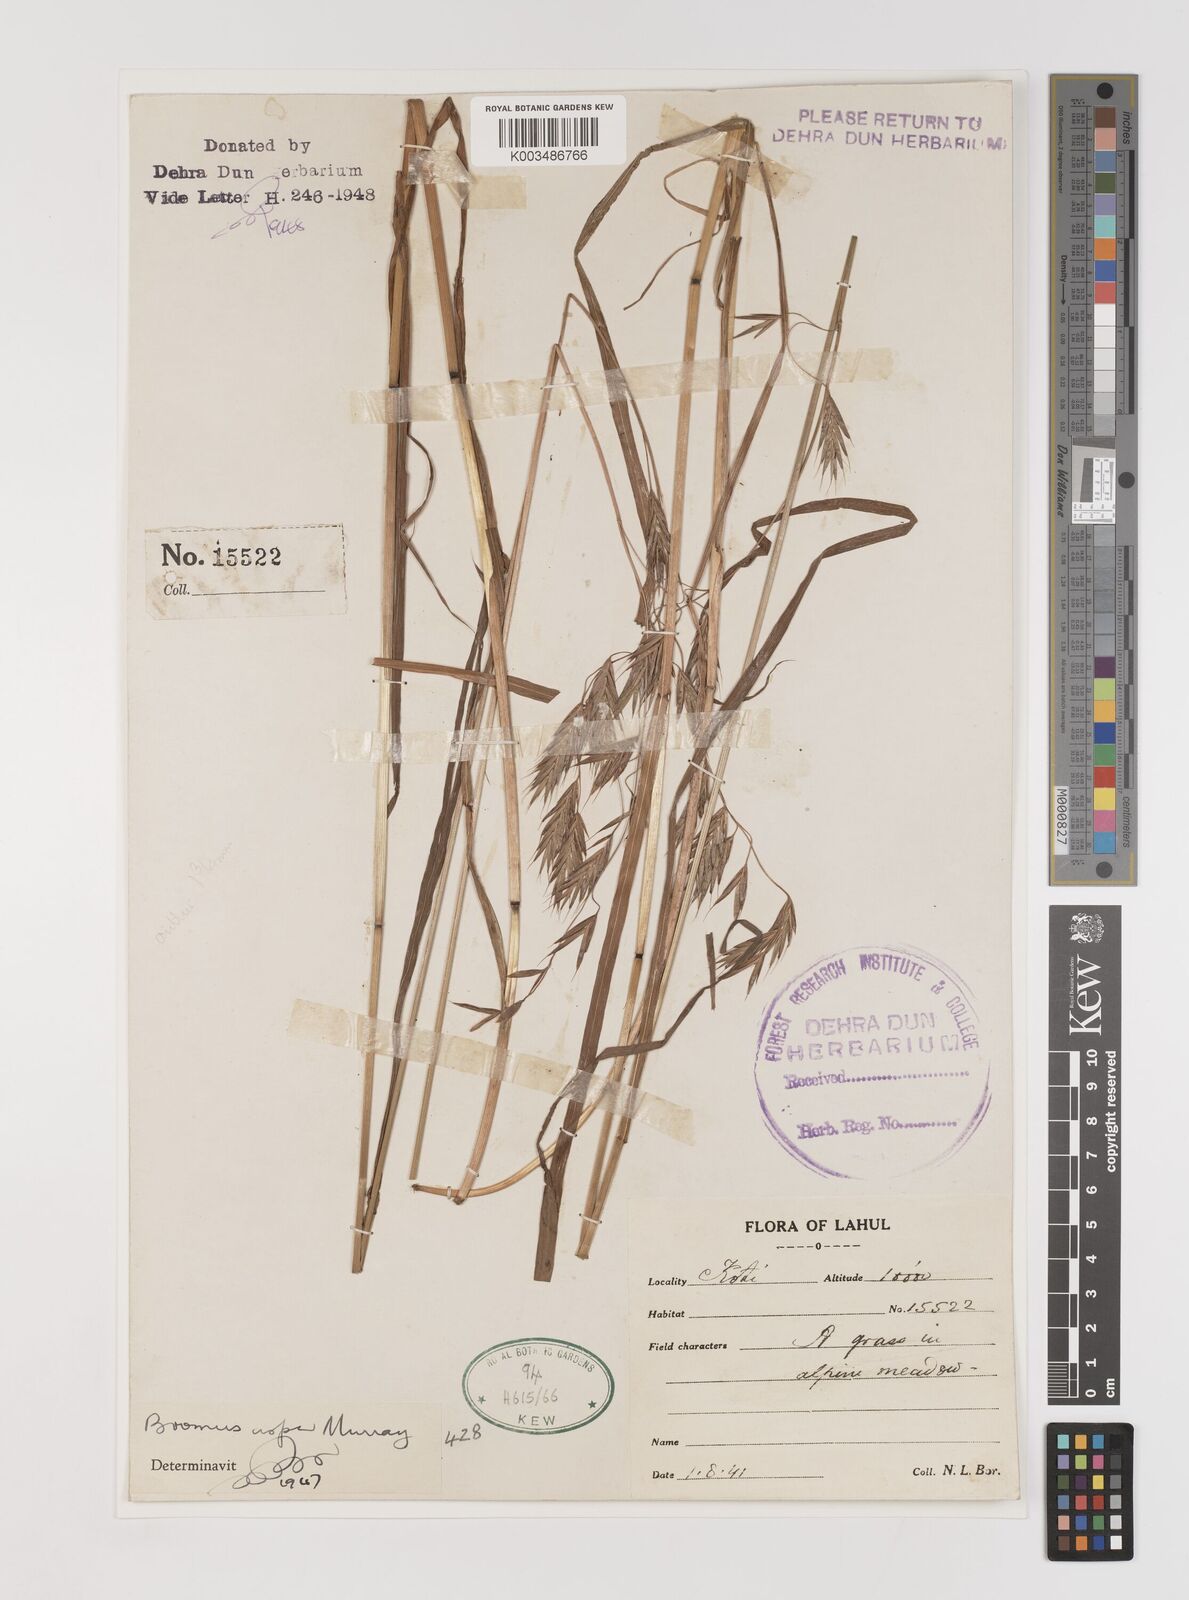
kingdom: Plantae
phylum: Tracheophyta
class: Liliopsida
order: Poales
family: Poaceae
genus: Brachypodium
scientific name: Brachypodium retusum
